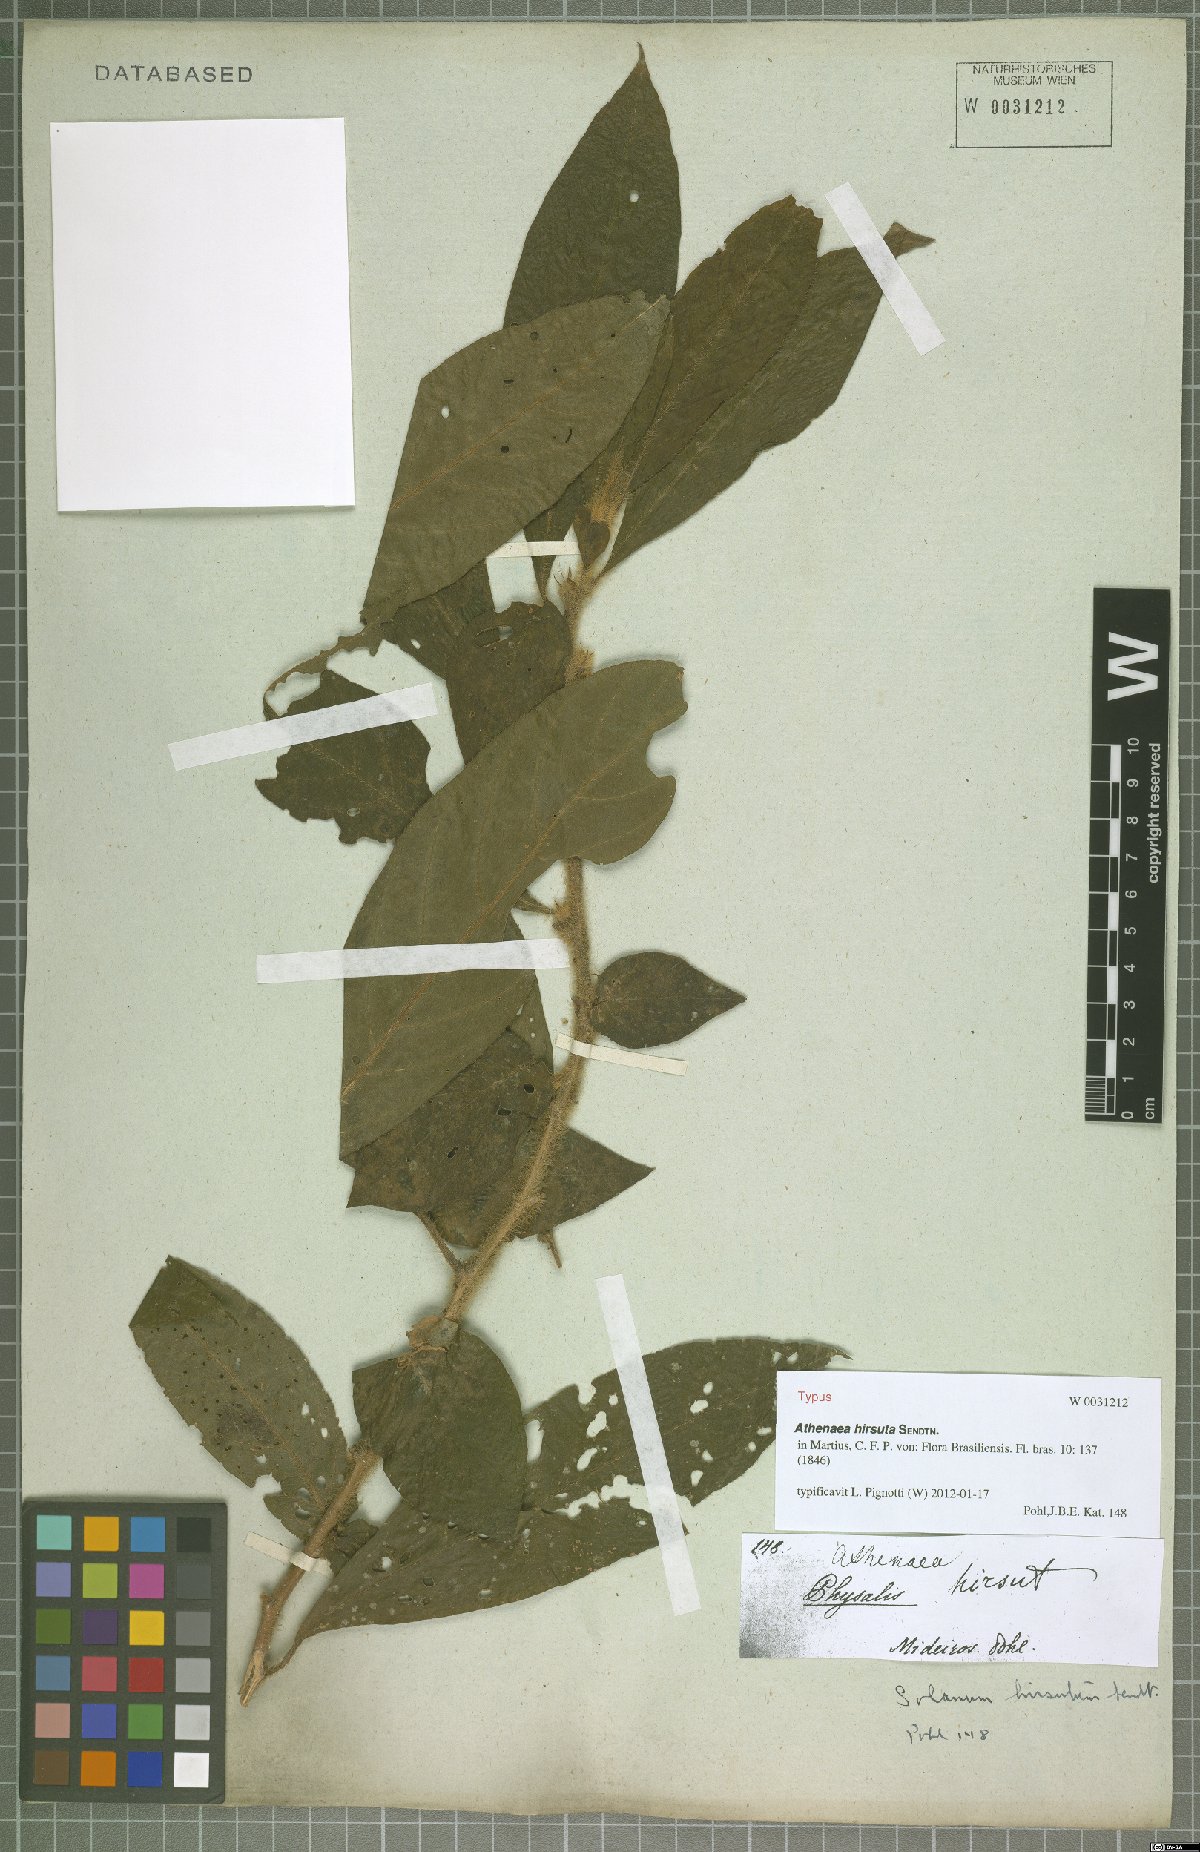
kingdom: Plantae
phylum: Tracheophyta
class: Magnoliopsida
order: Solanales
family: Solanaceae
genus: Athenaea
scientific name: Athenaea martiana
